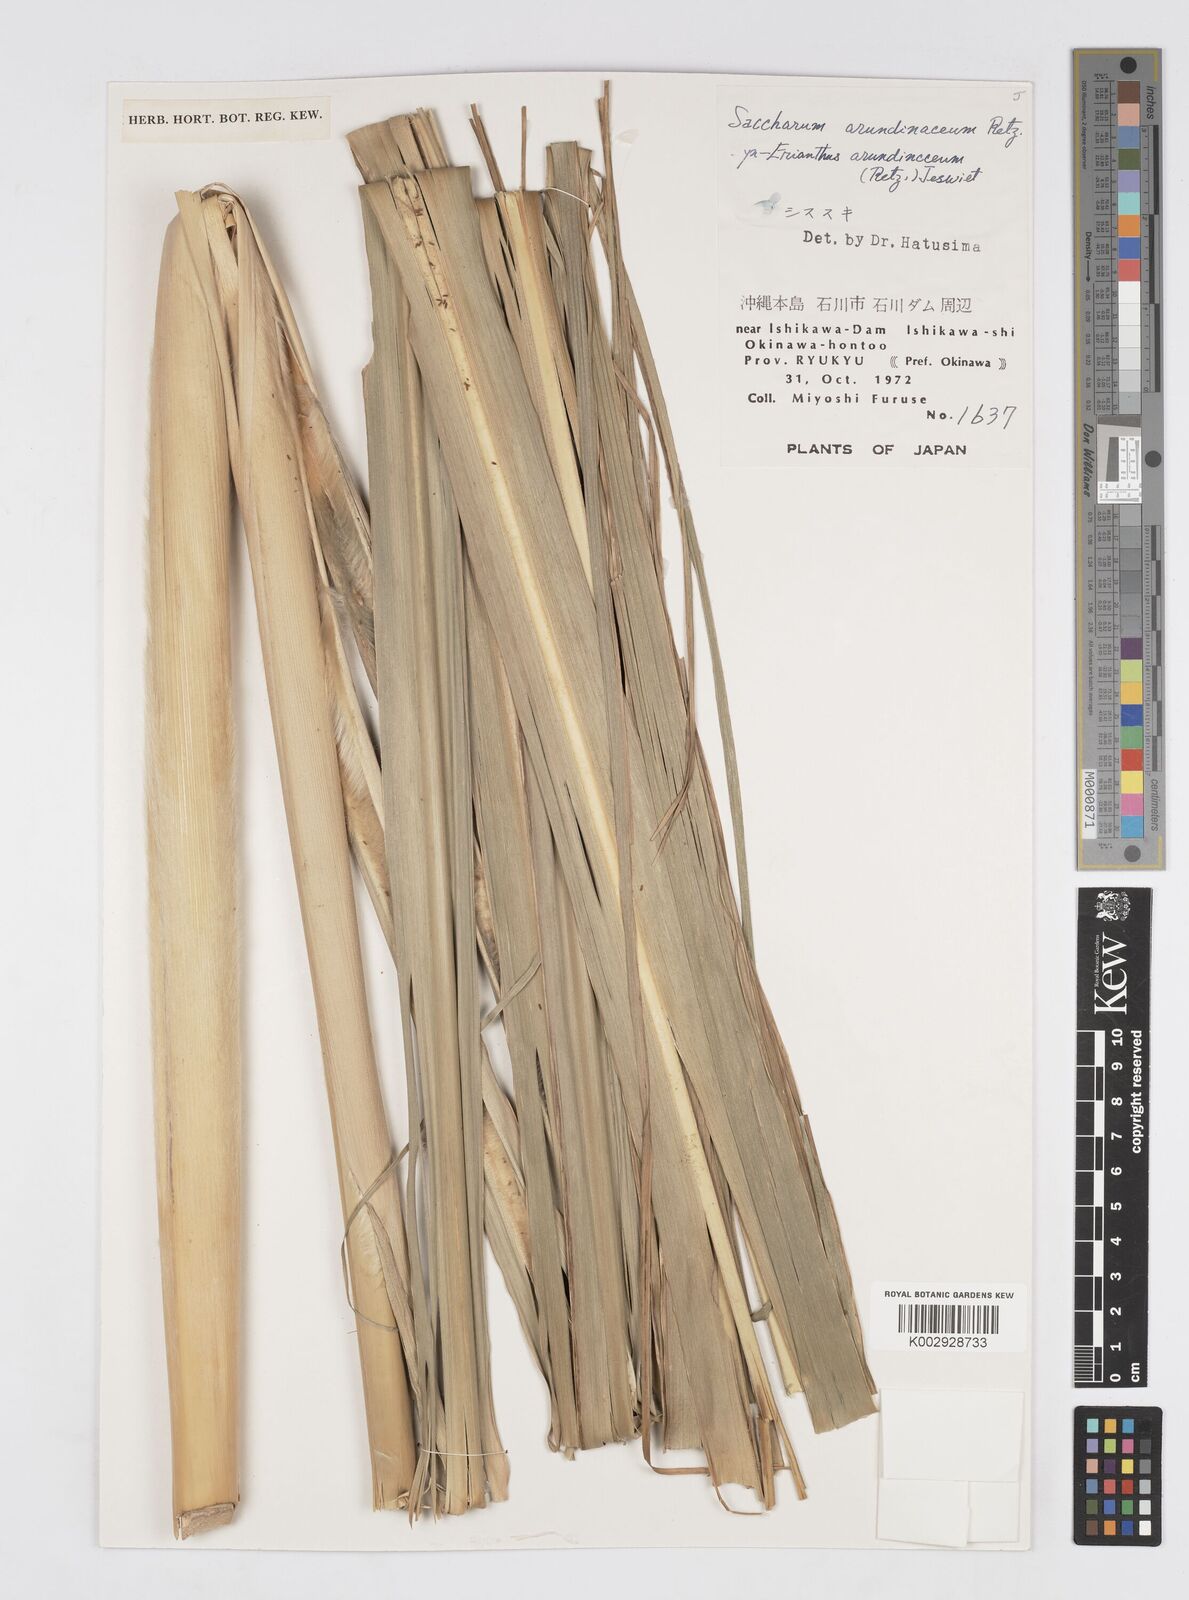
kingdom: Plantae
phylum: Tracheophyta
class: Liliopsida
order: Poales
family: Poaceae
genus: Tripidium
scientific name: Tripidium arundinaceum
